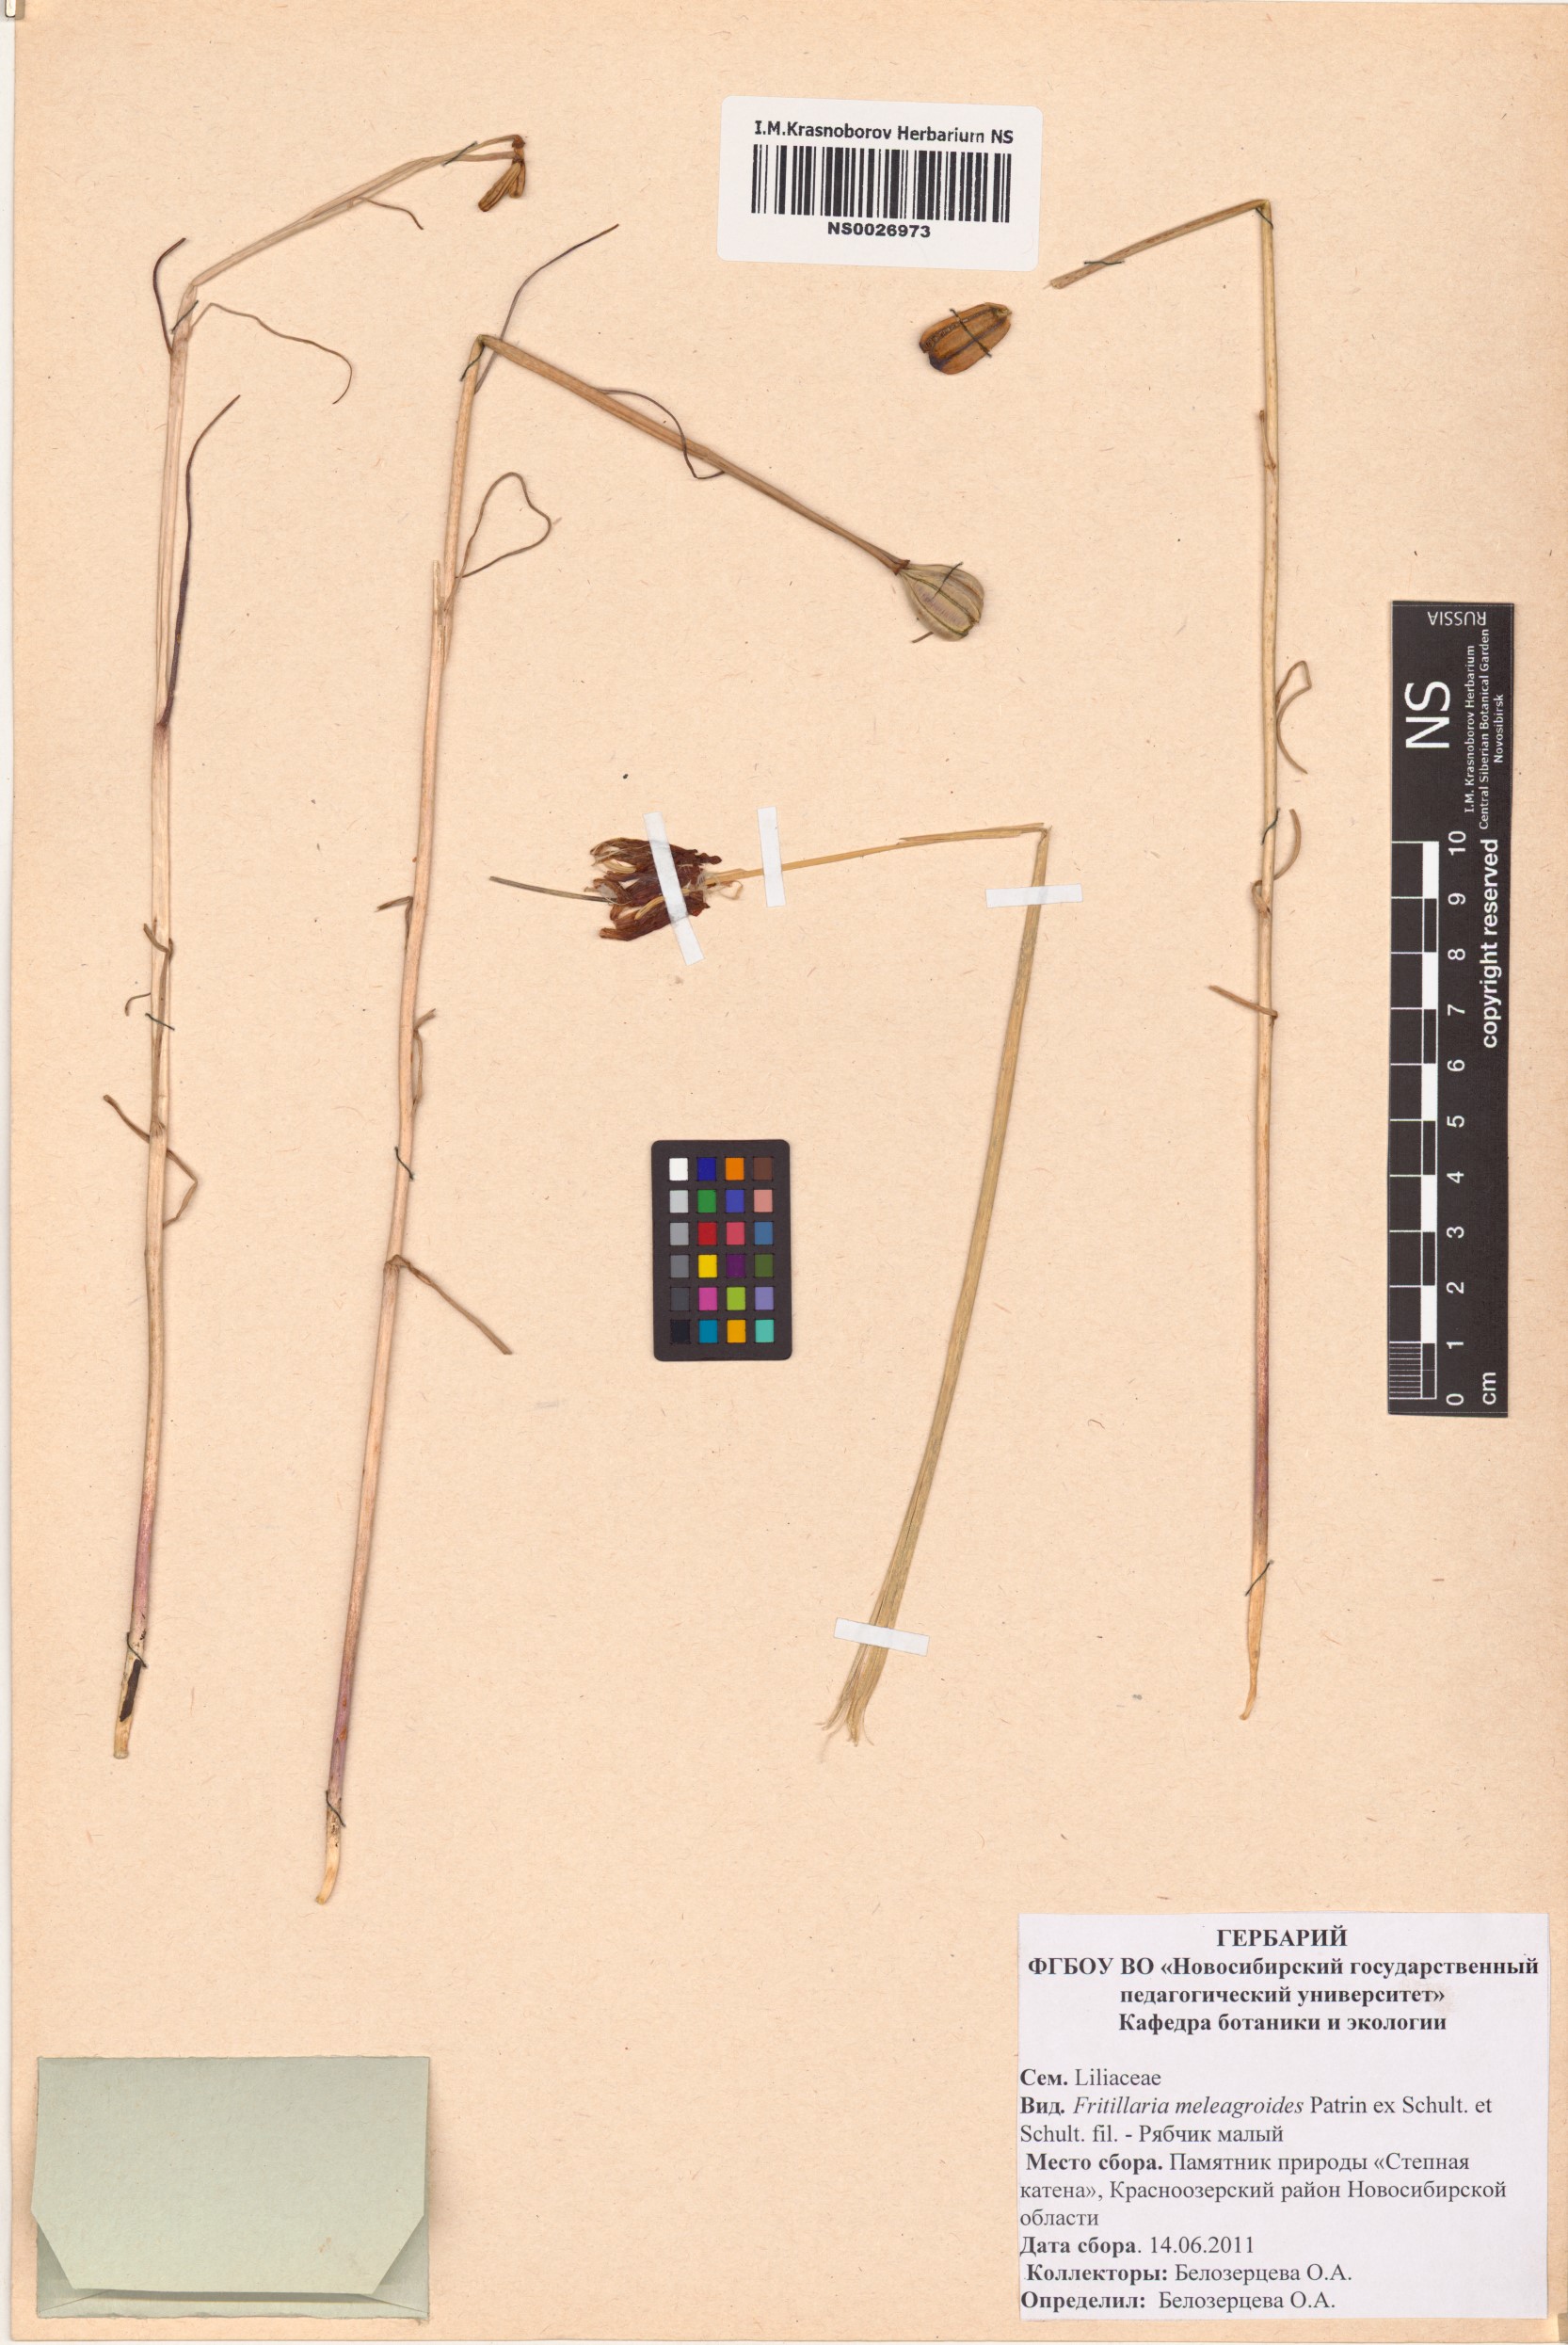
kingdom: Plantae
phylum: Tracheophyta
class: Liliopsida
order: Liliales
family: Liliaceae
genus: Fritillaria
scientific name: Fritillaria meleagroides
